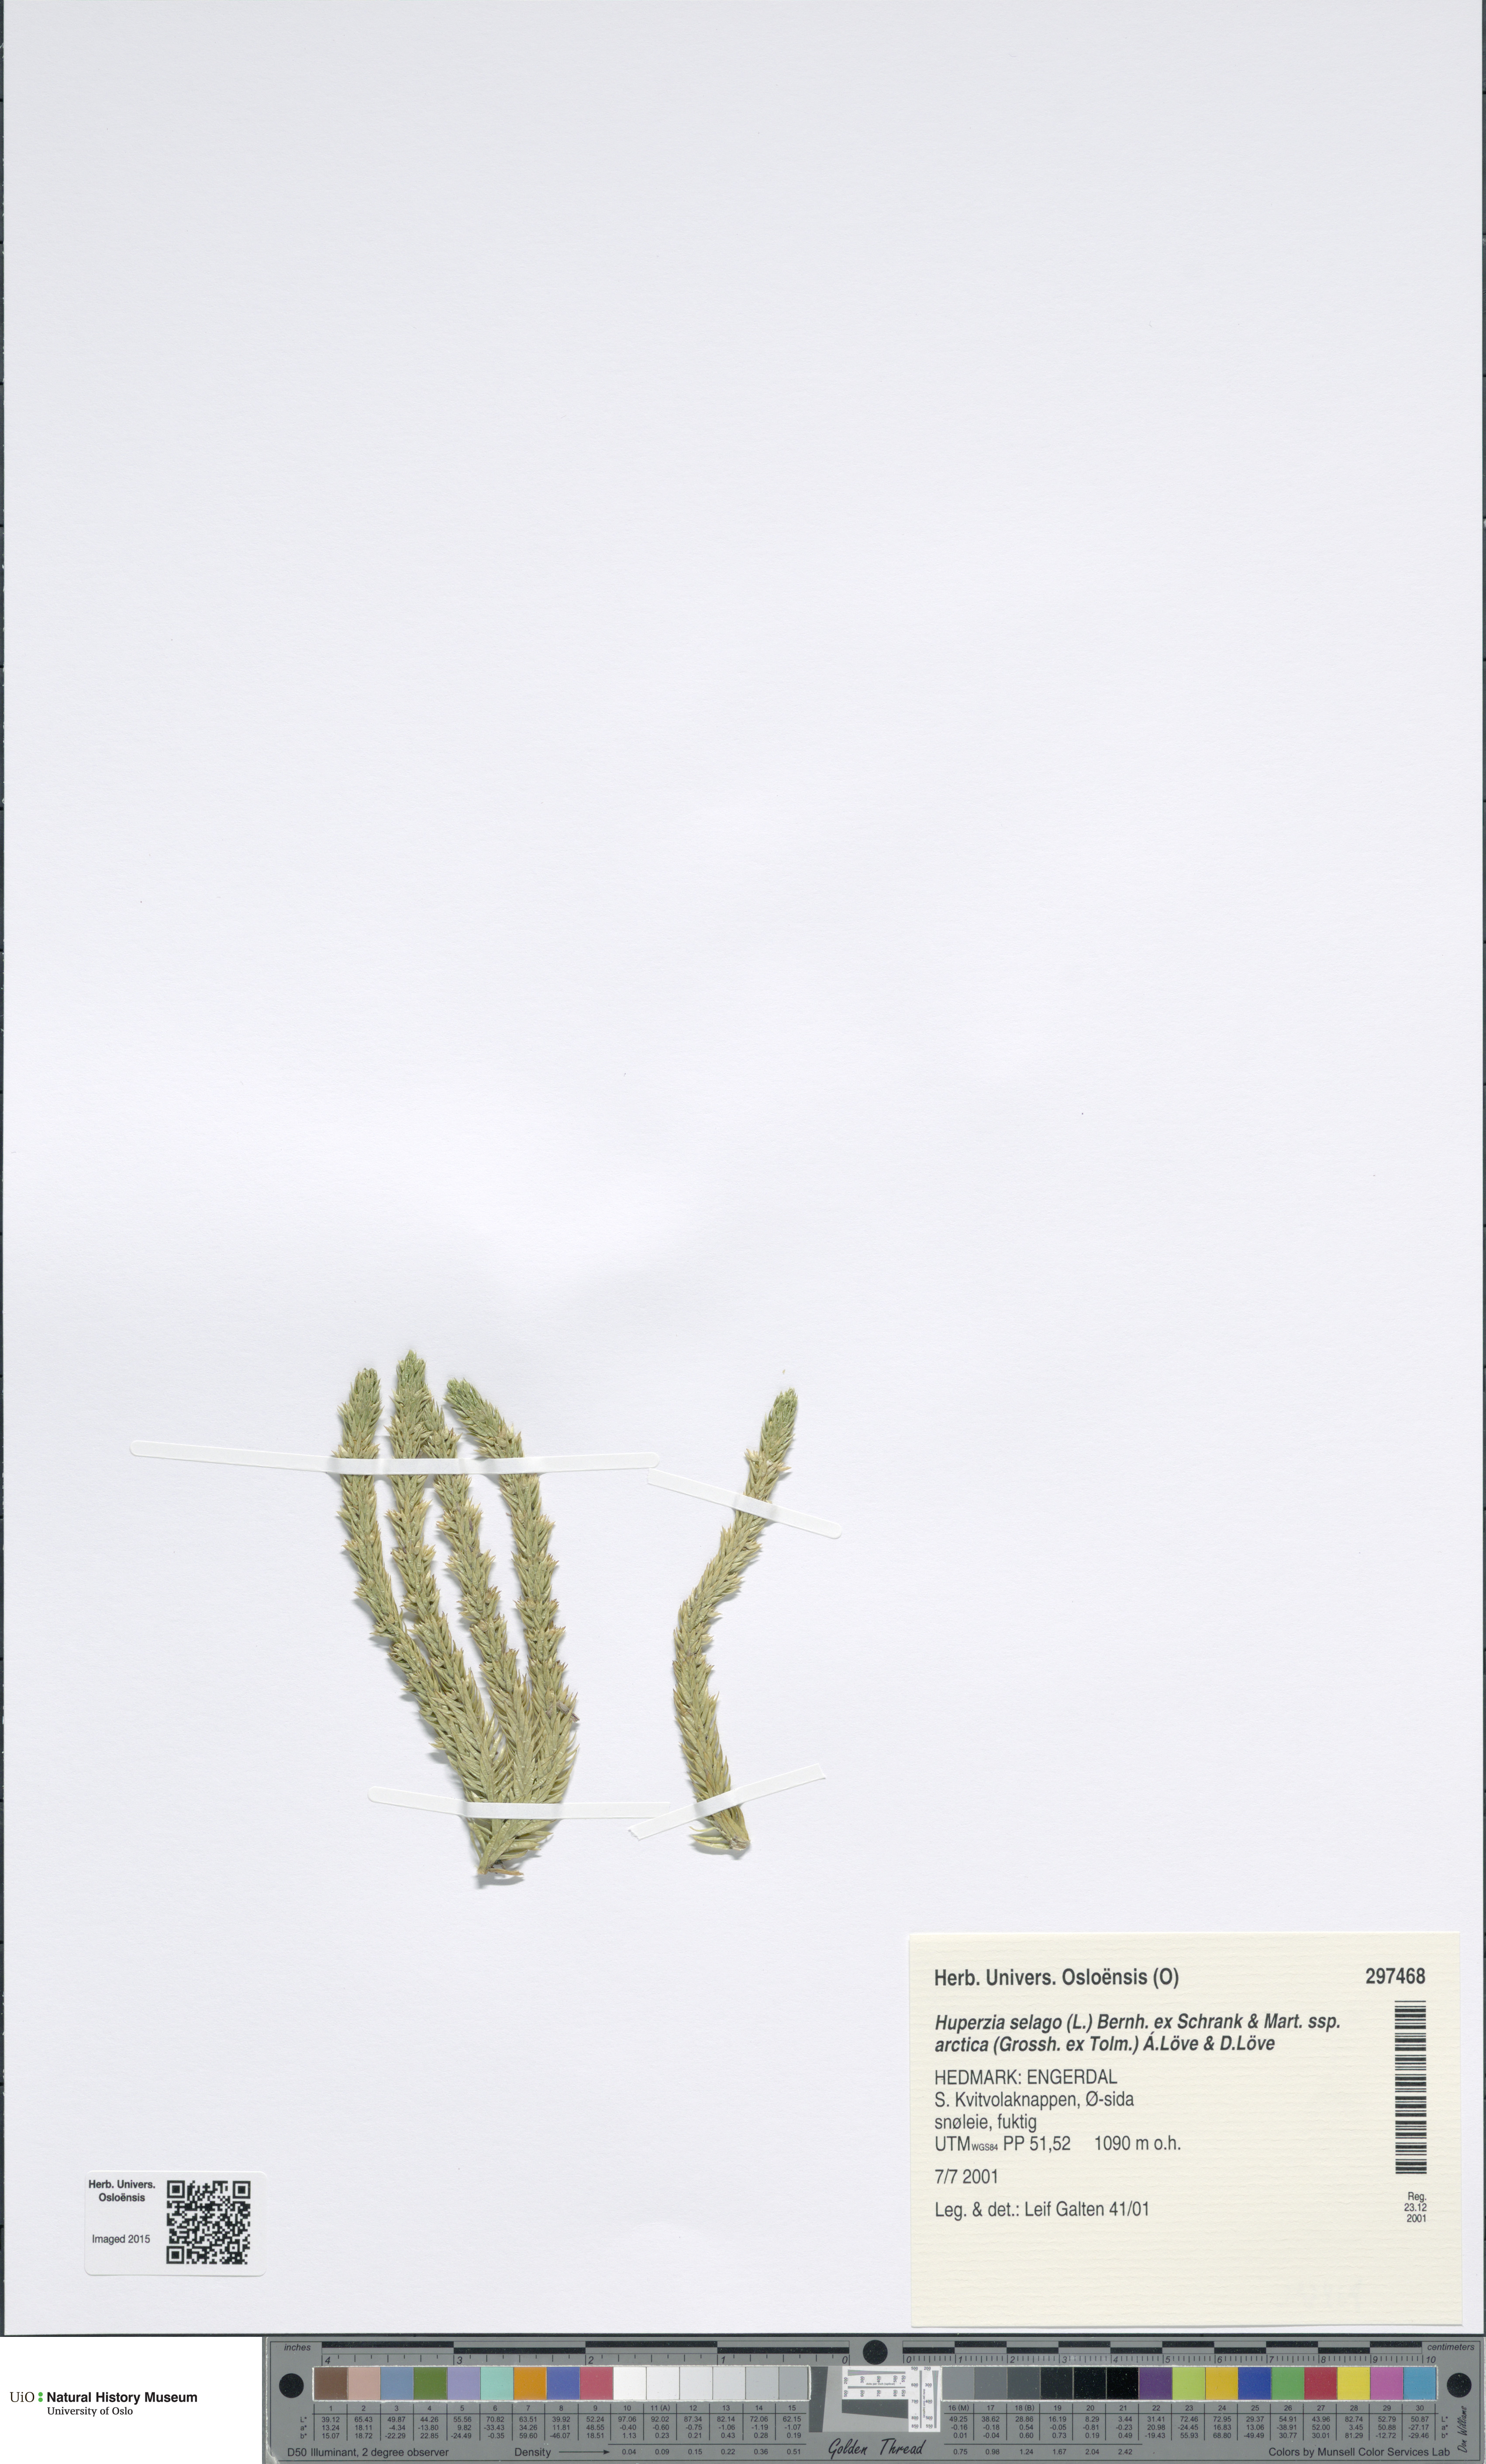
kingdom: Plantae
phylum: Tracheophyta
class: Lycopodiopsida
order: Lycopodiales
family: Lycopodiaceae
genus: Huperzia
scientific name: Huperzia selago
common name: Northern firmoss
